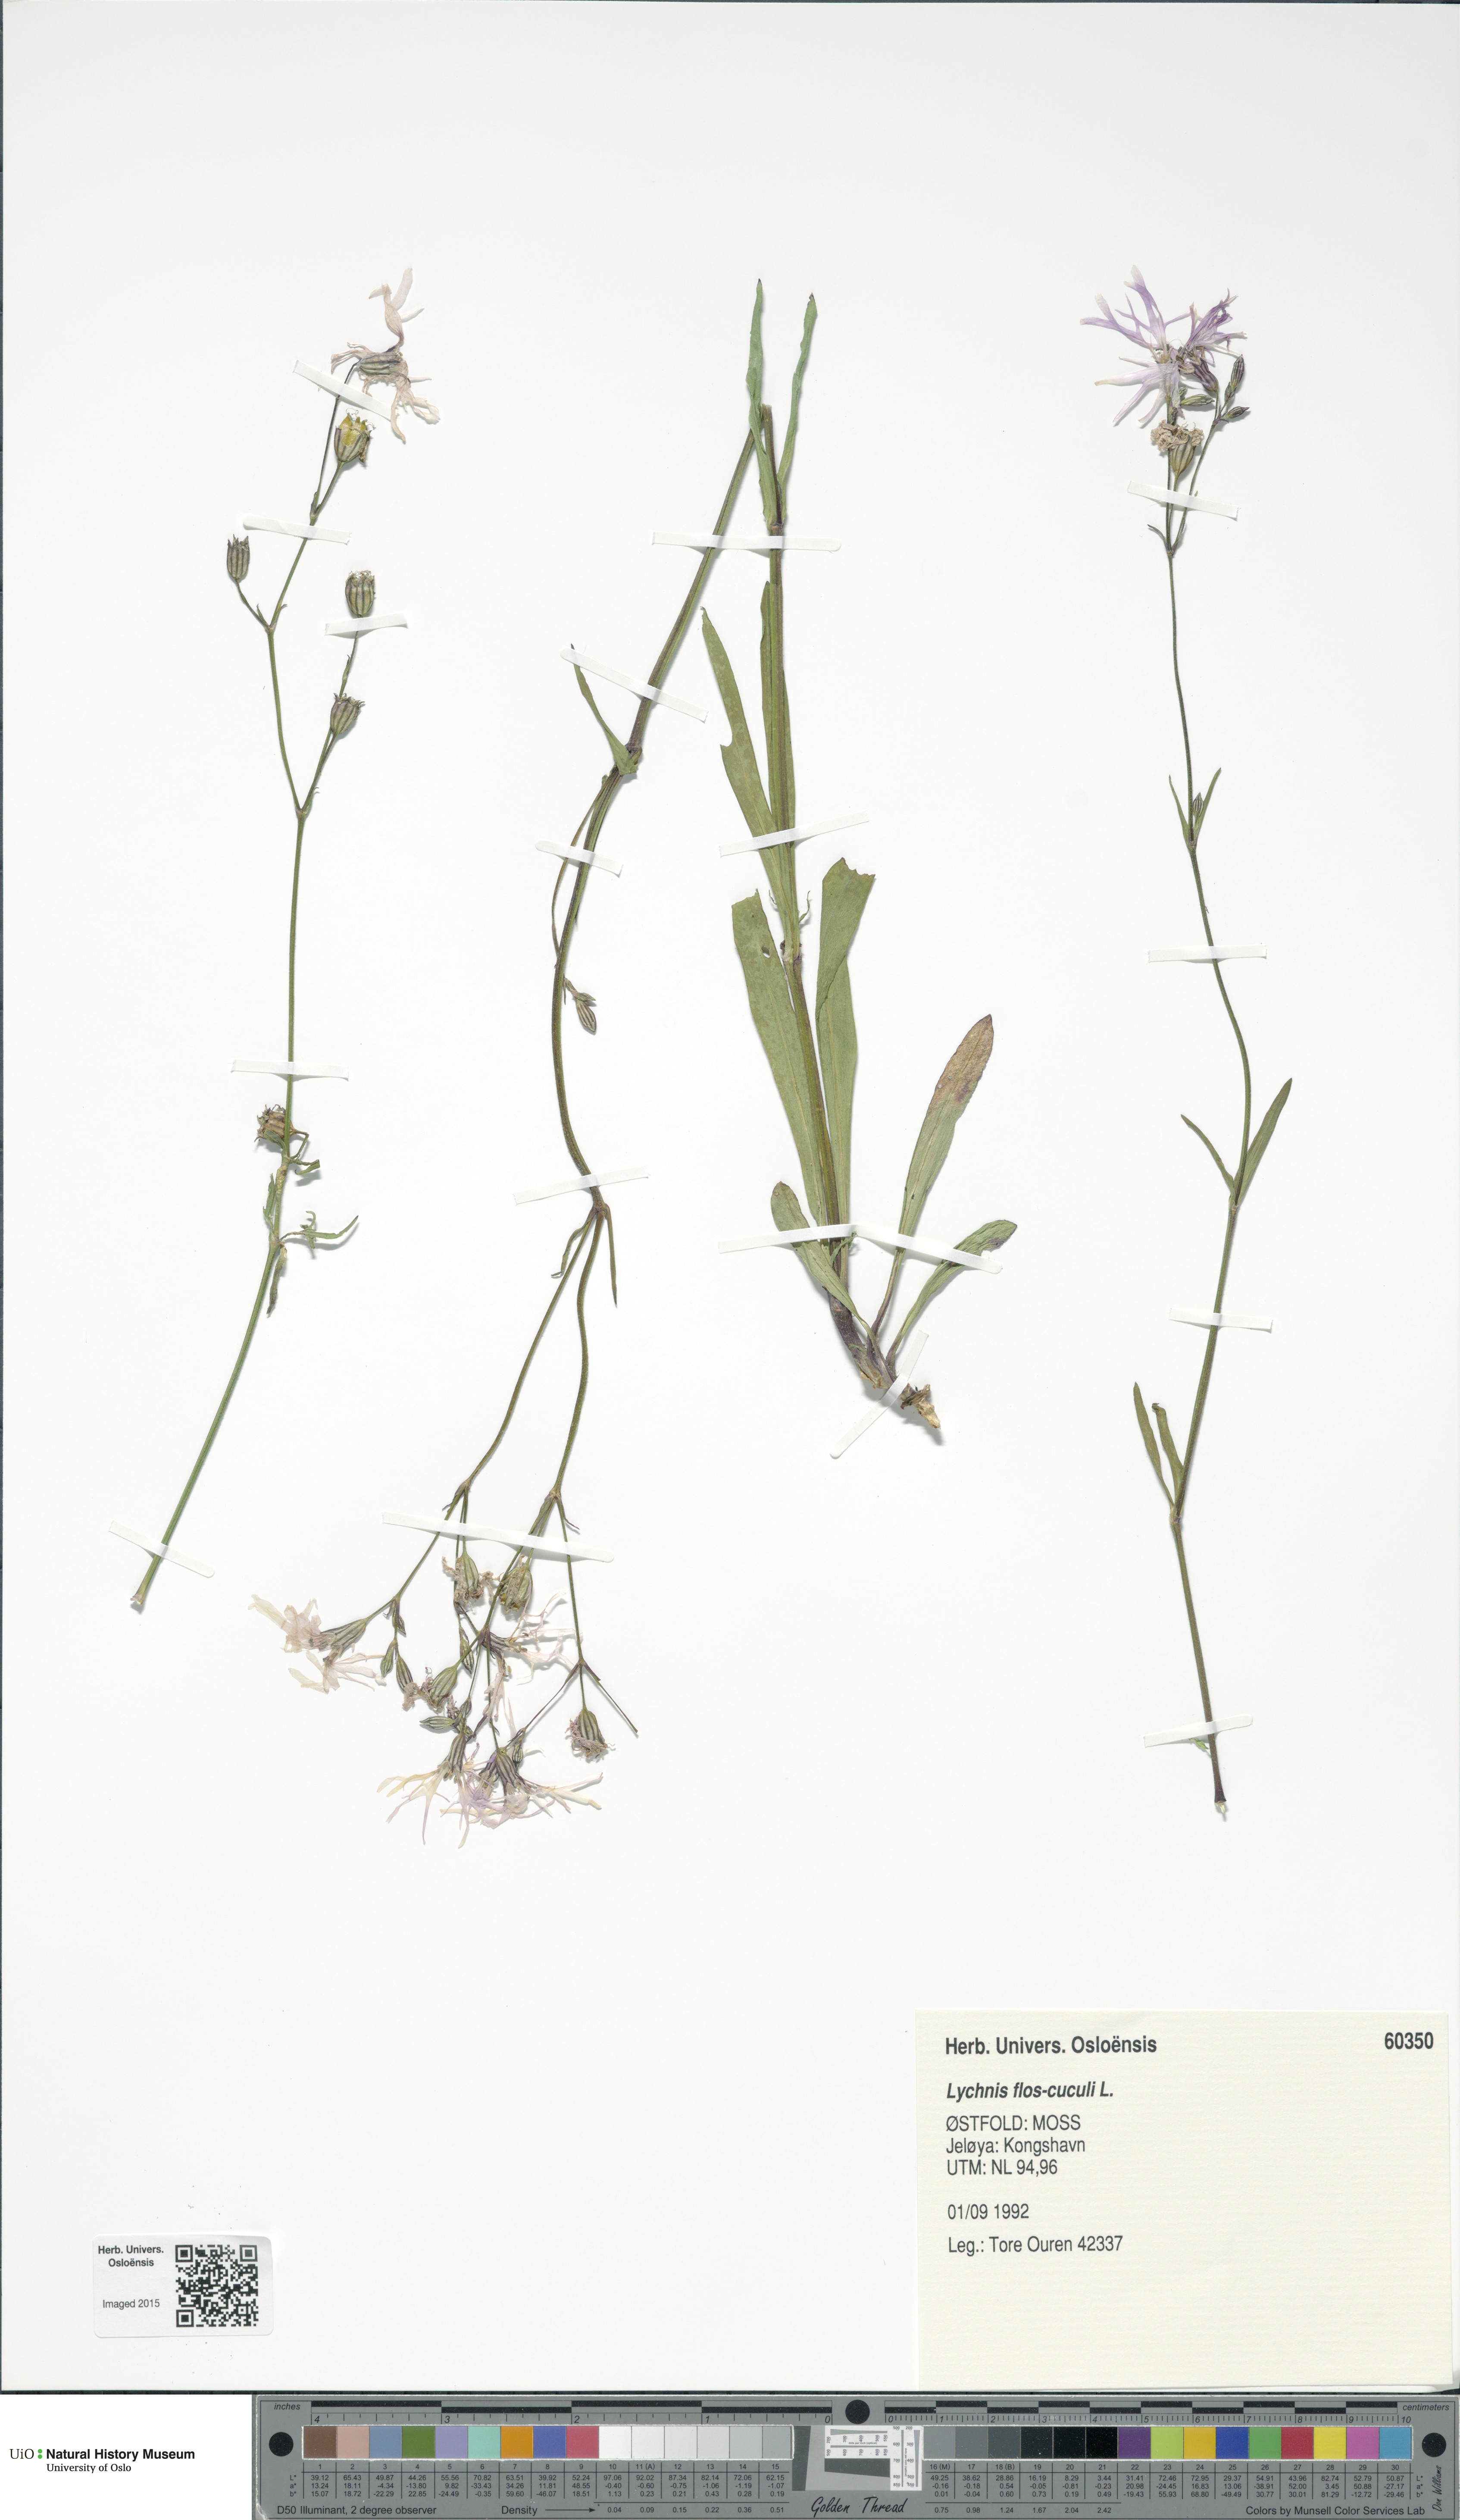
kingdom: Plantae
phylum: Tracheophyta
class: Magnoliopsida
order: Caryophyllales
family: Caryophyllaceae
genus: Silene
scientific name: Silene flos-cuculi
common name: Ragged-robin
